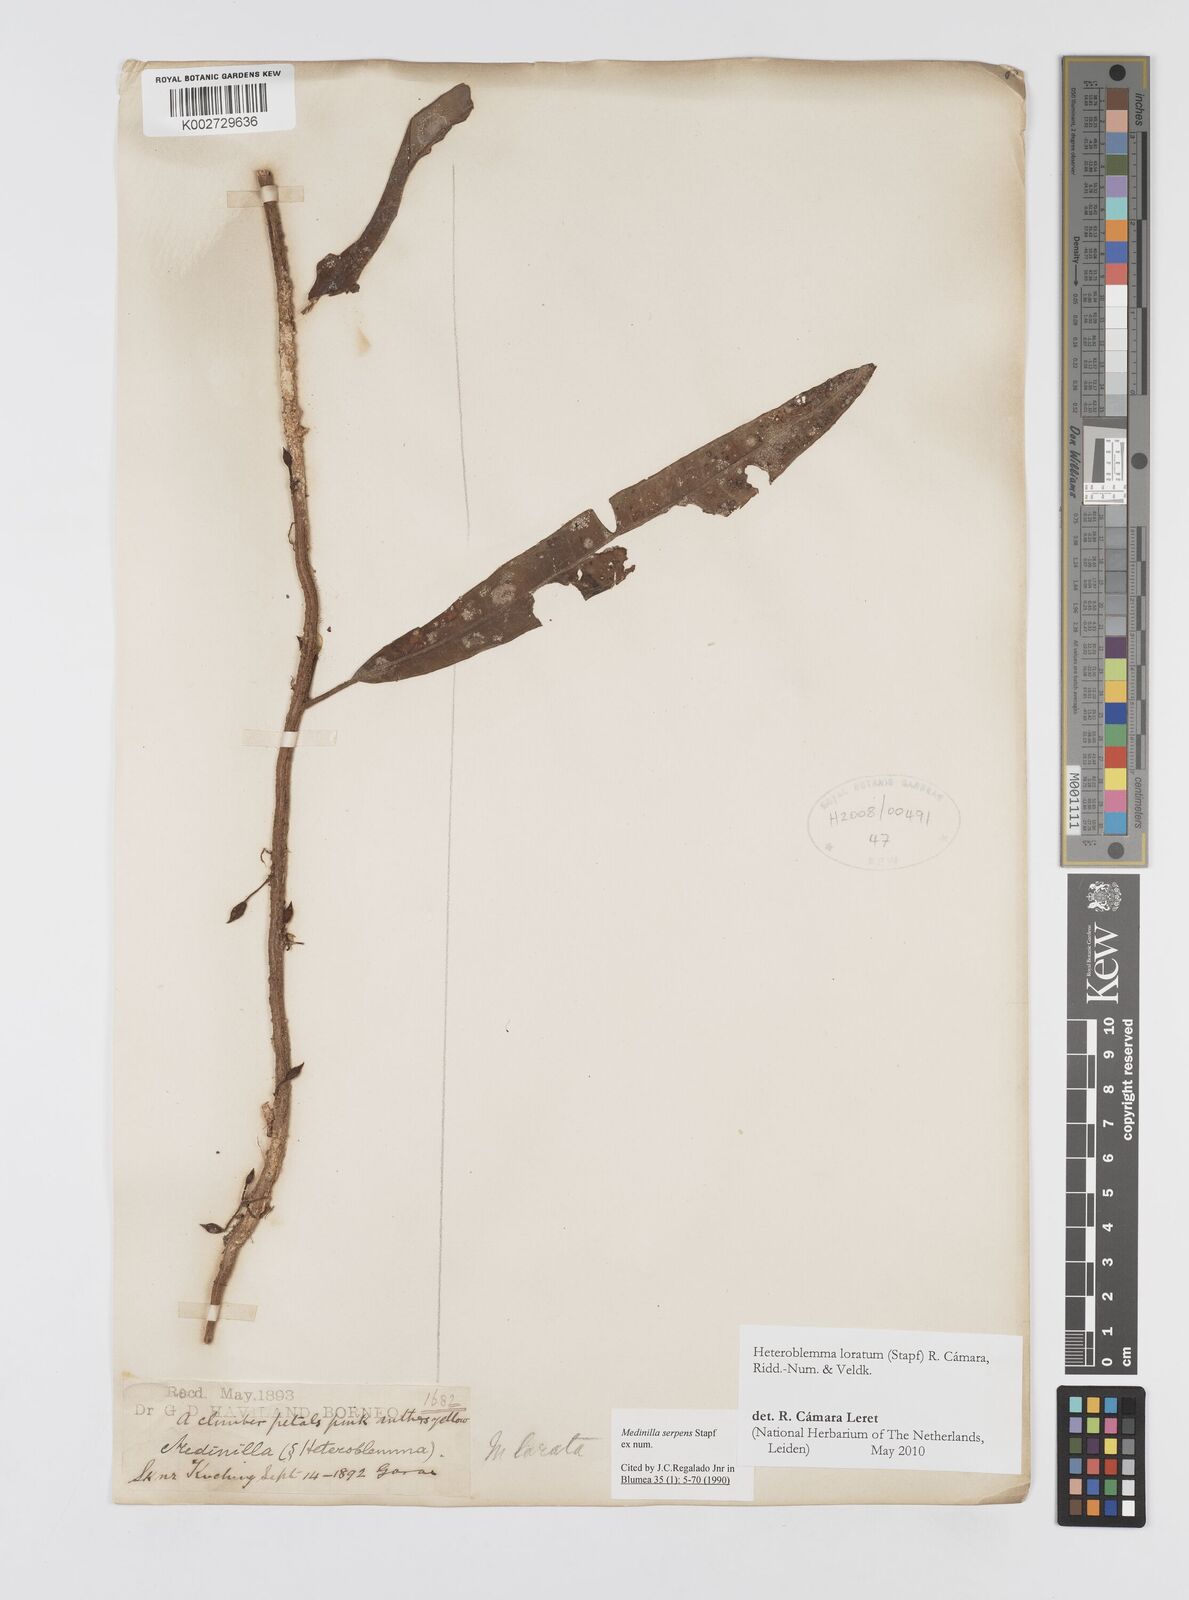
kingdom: Plantae
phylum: Tracheophyta
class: Magnoliopsida
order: Myrtales
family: Melastomataceae
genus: Heteroblemma
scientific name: Heteroblemma loratum
